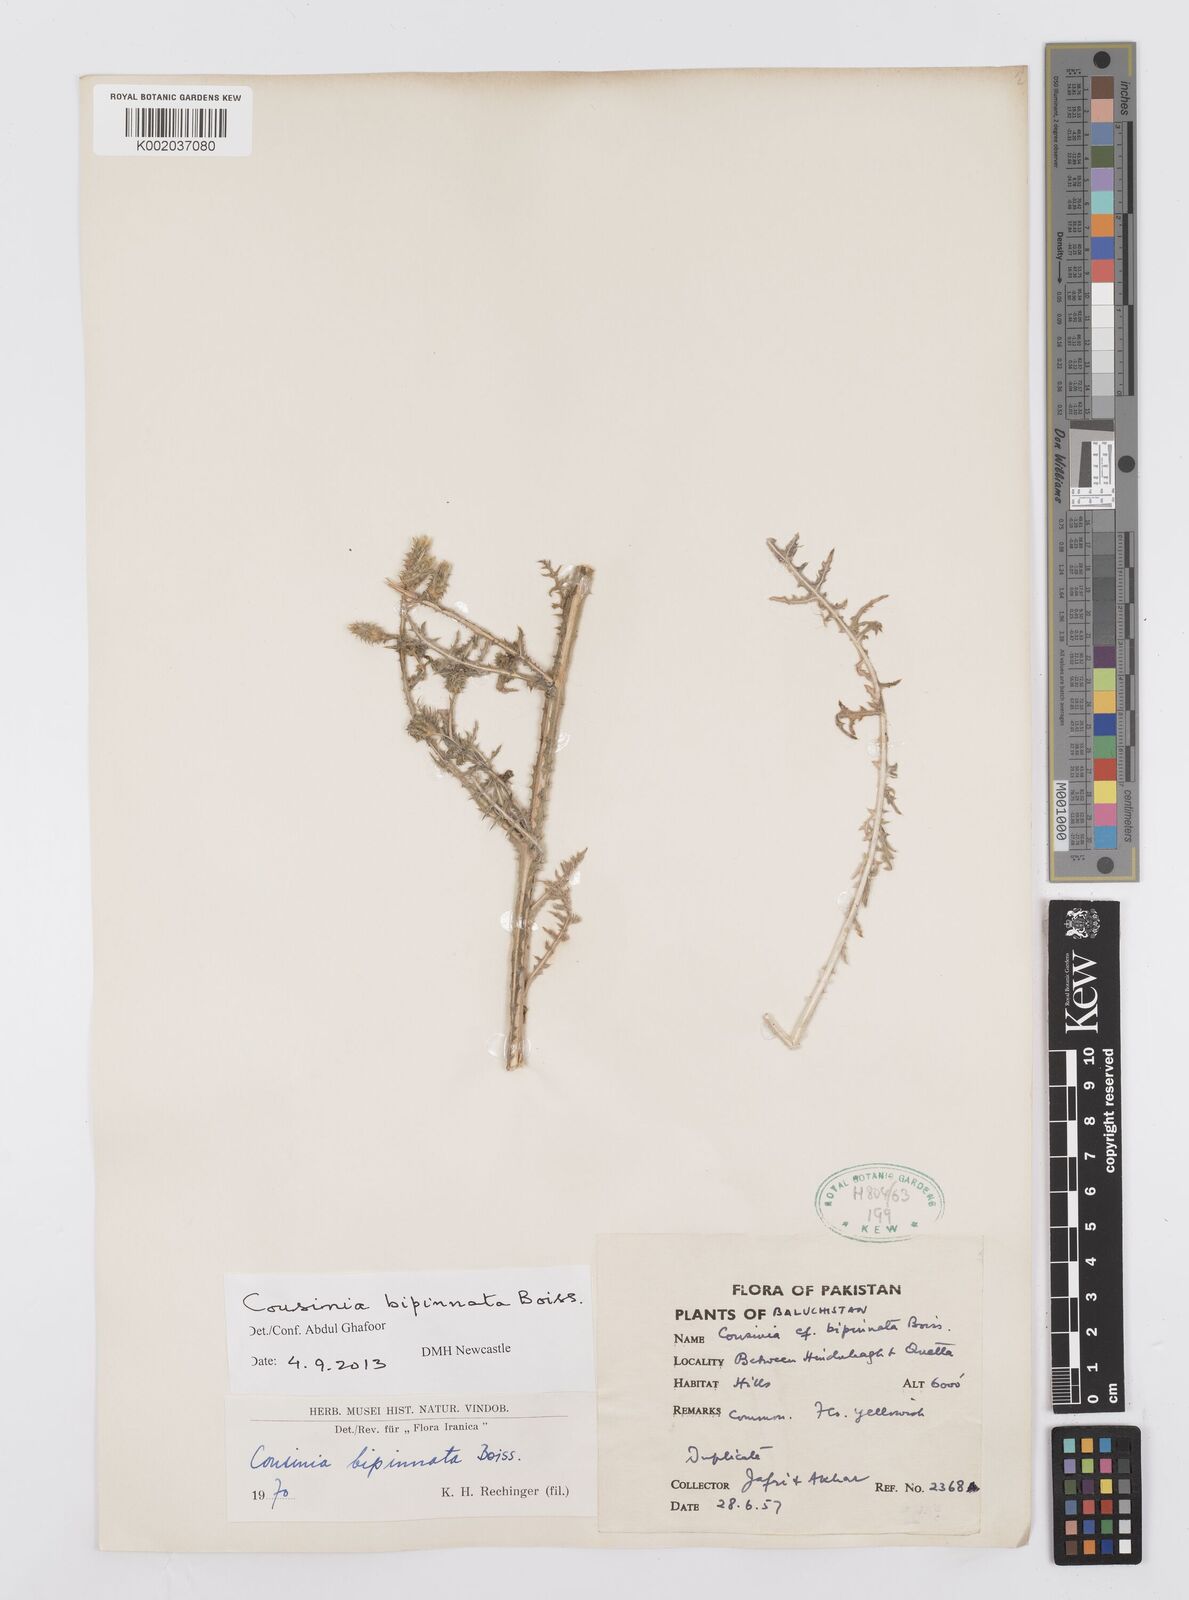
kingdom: Plantae
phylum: Tracheophyta
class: Magnoliopsida
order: Asterales
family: Asteraceae
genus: Cousinia
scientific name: Cousinia bipinnata
